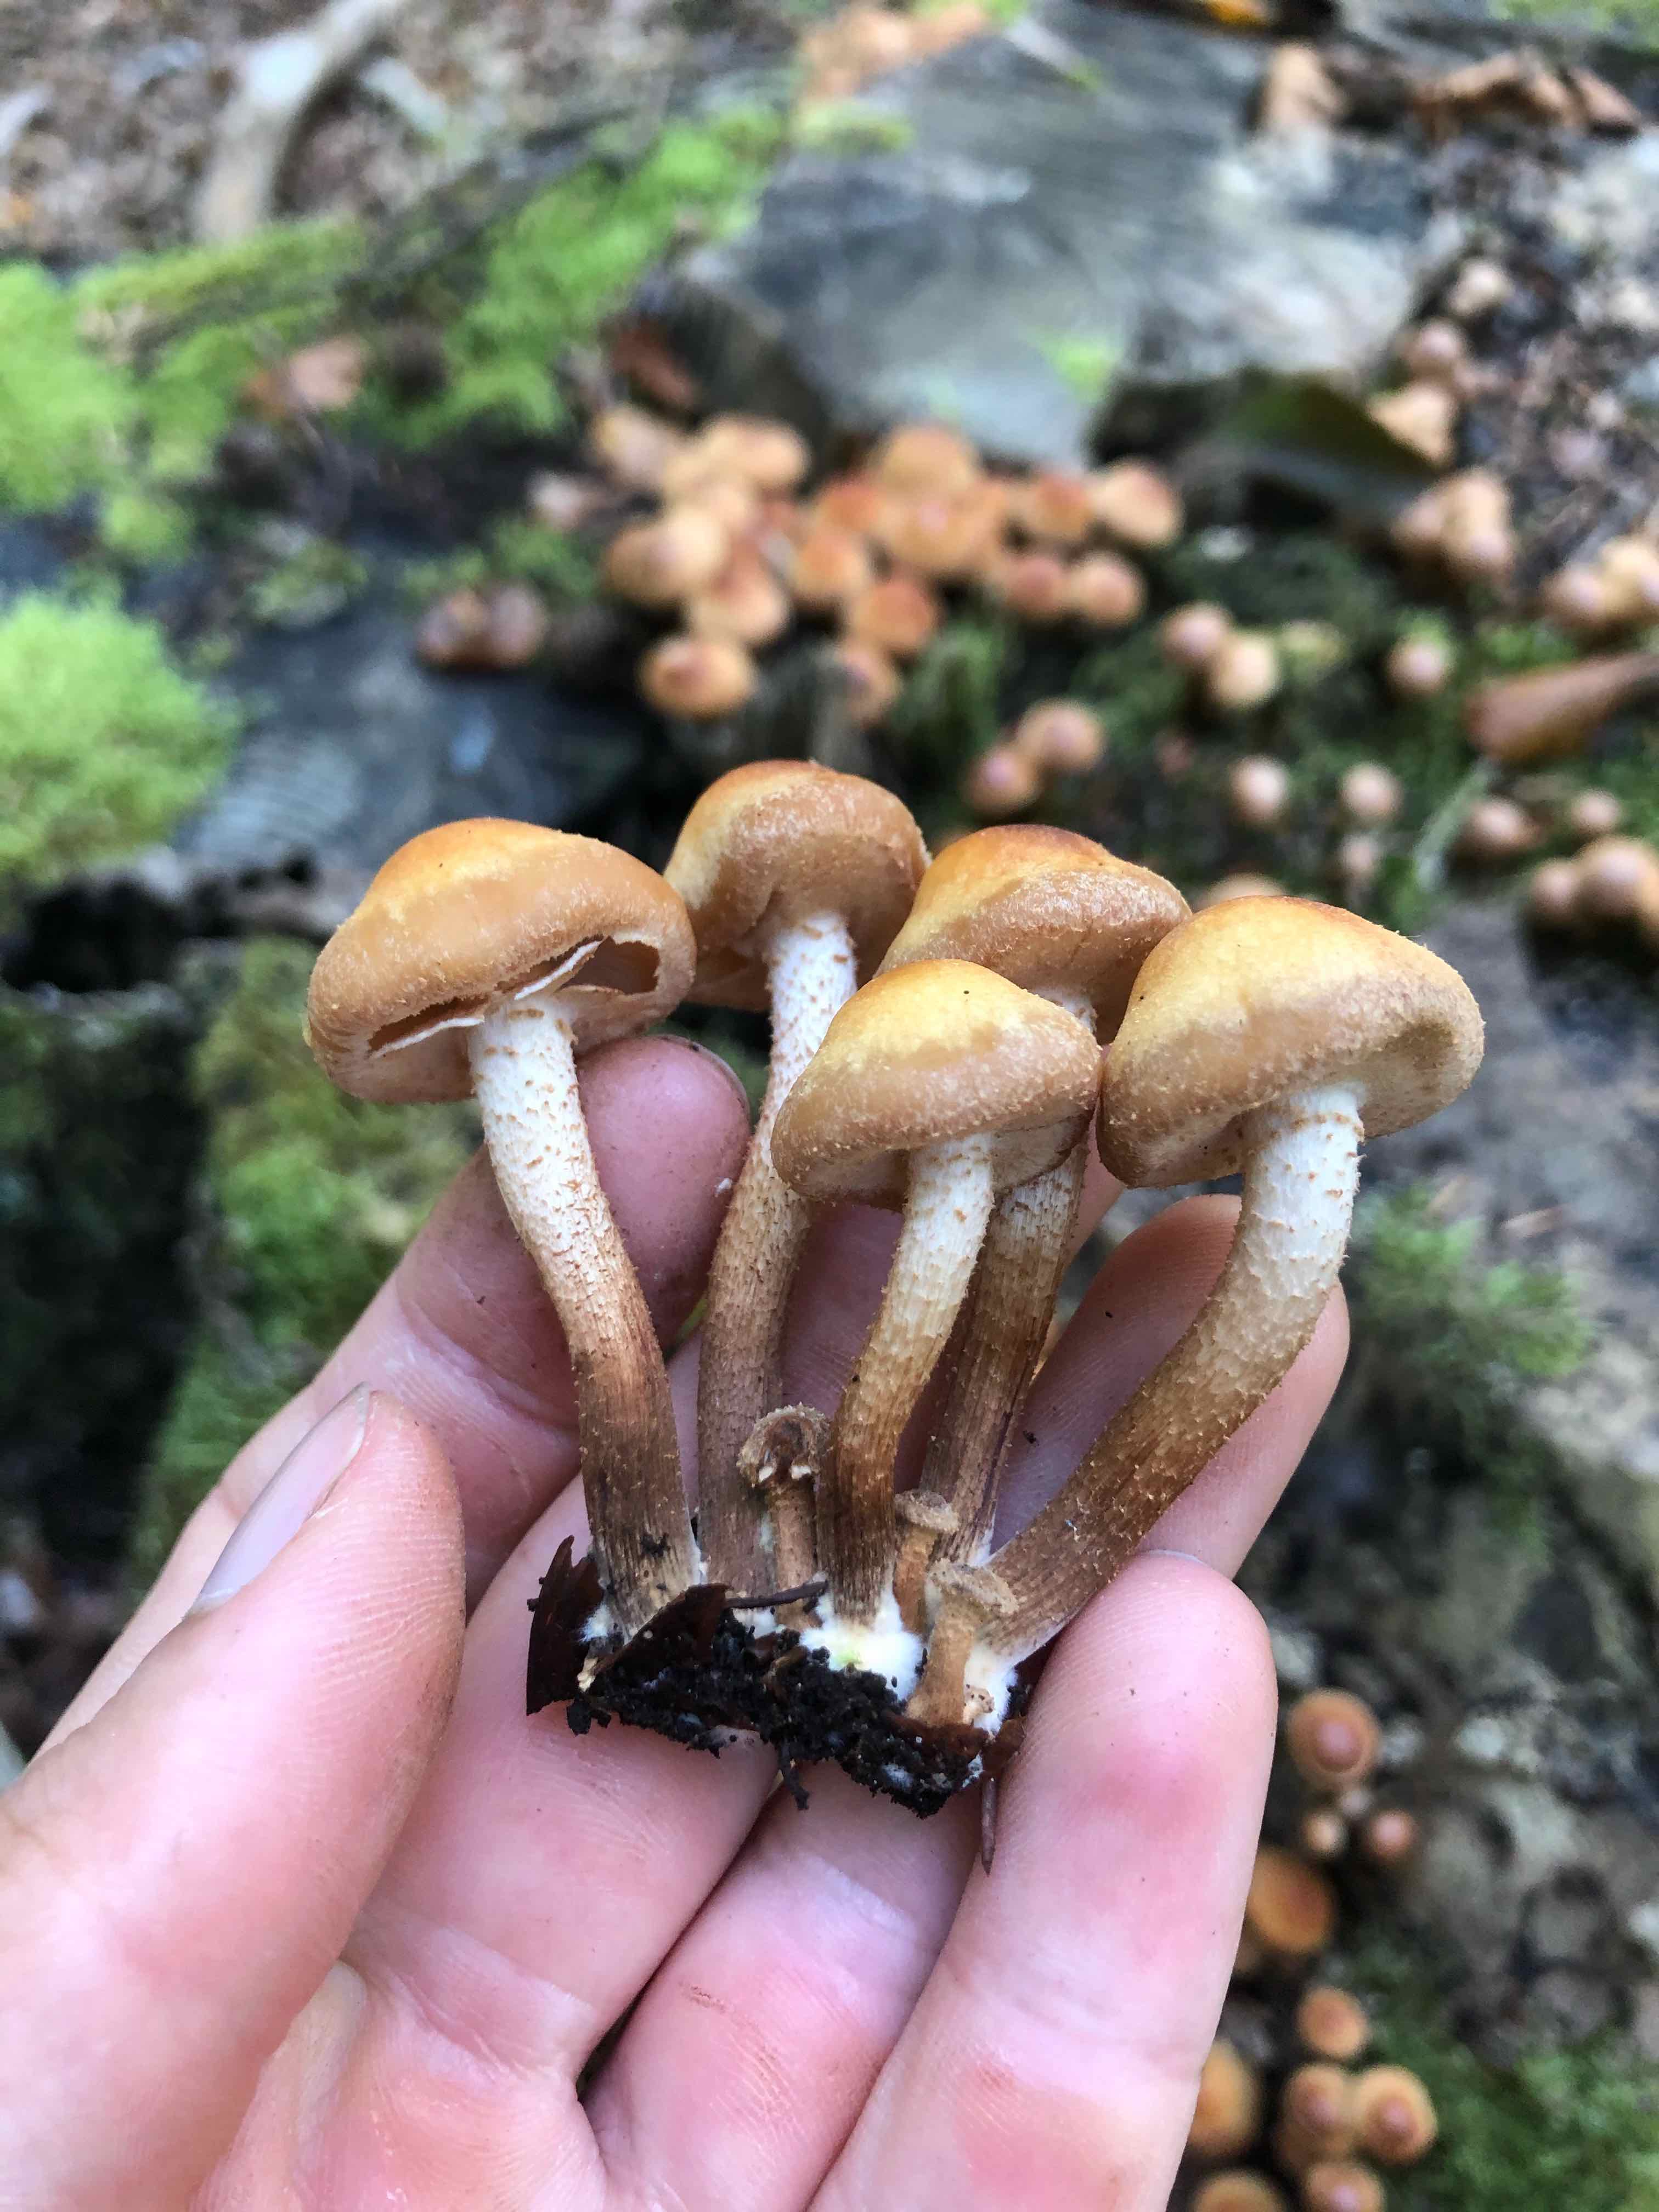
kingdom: Fungi
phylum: Basidiomycota
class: Agaricomycetes
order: Agaricales
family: Strophariaceae
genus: Kuehneromyces
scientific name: Kuehneromyces mutabilis
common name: foranderlig skælhat
